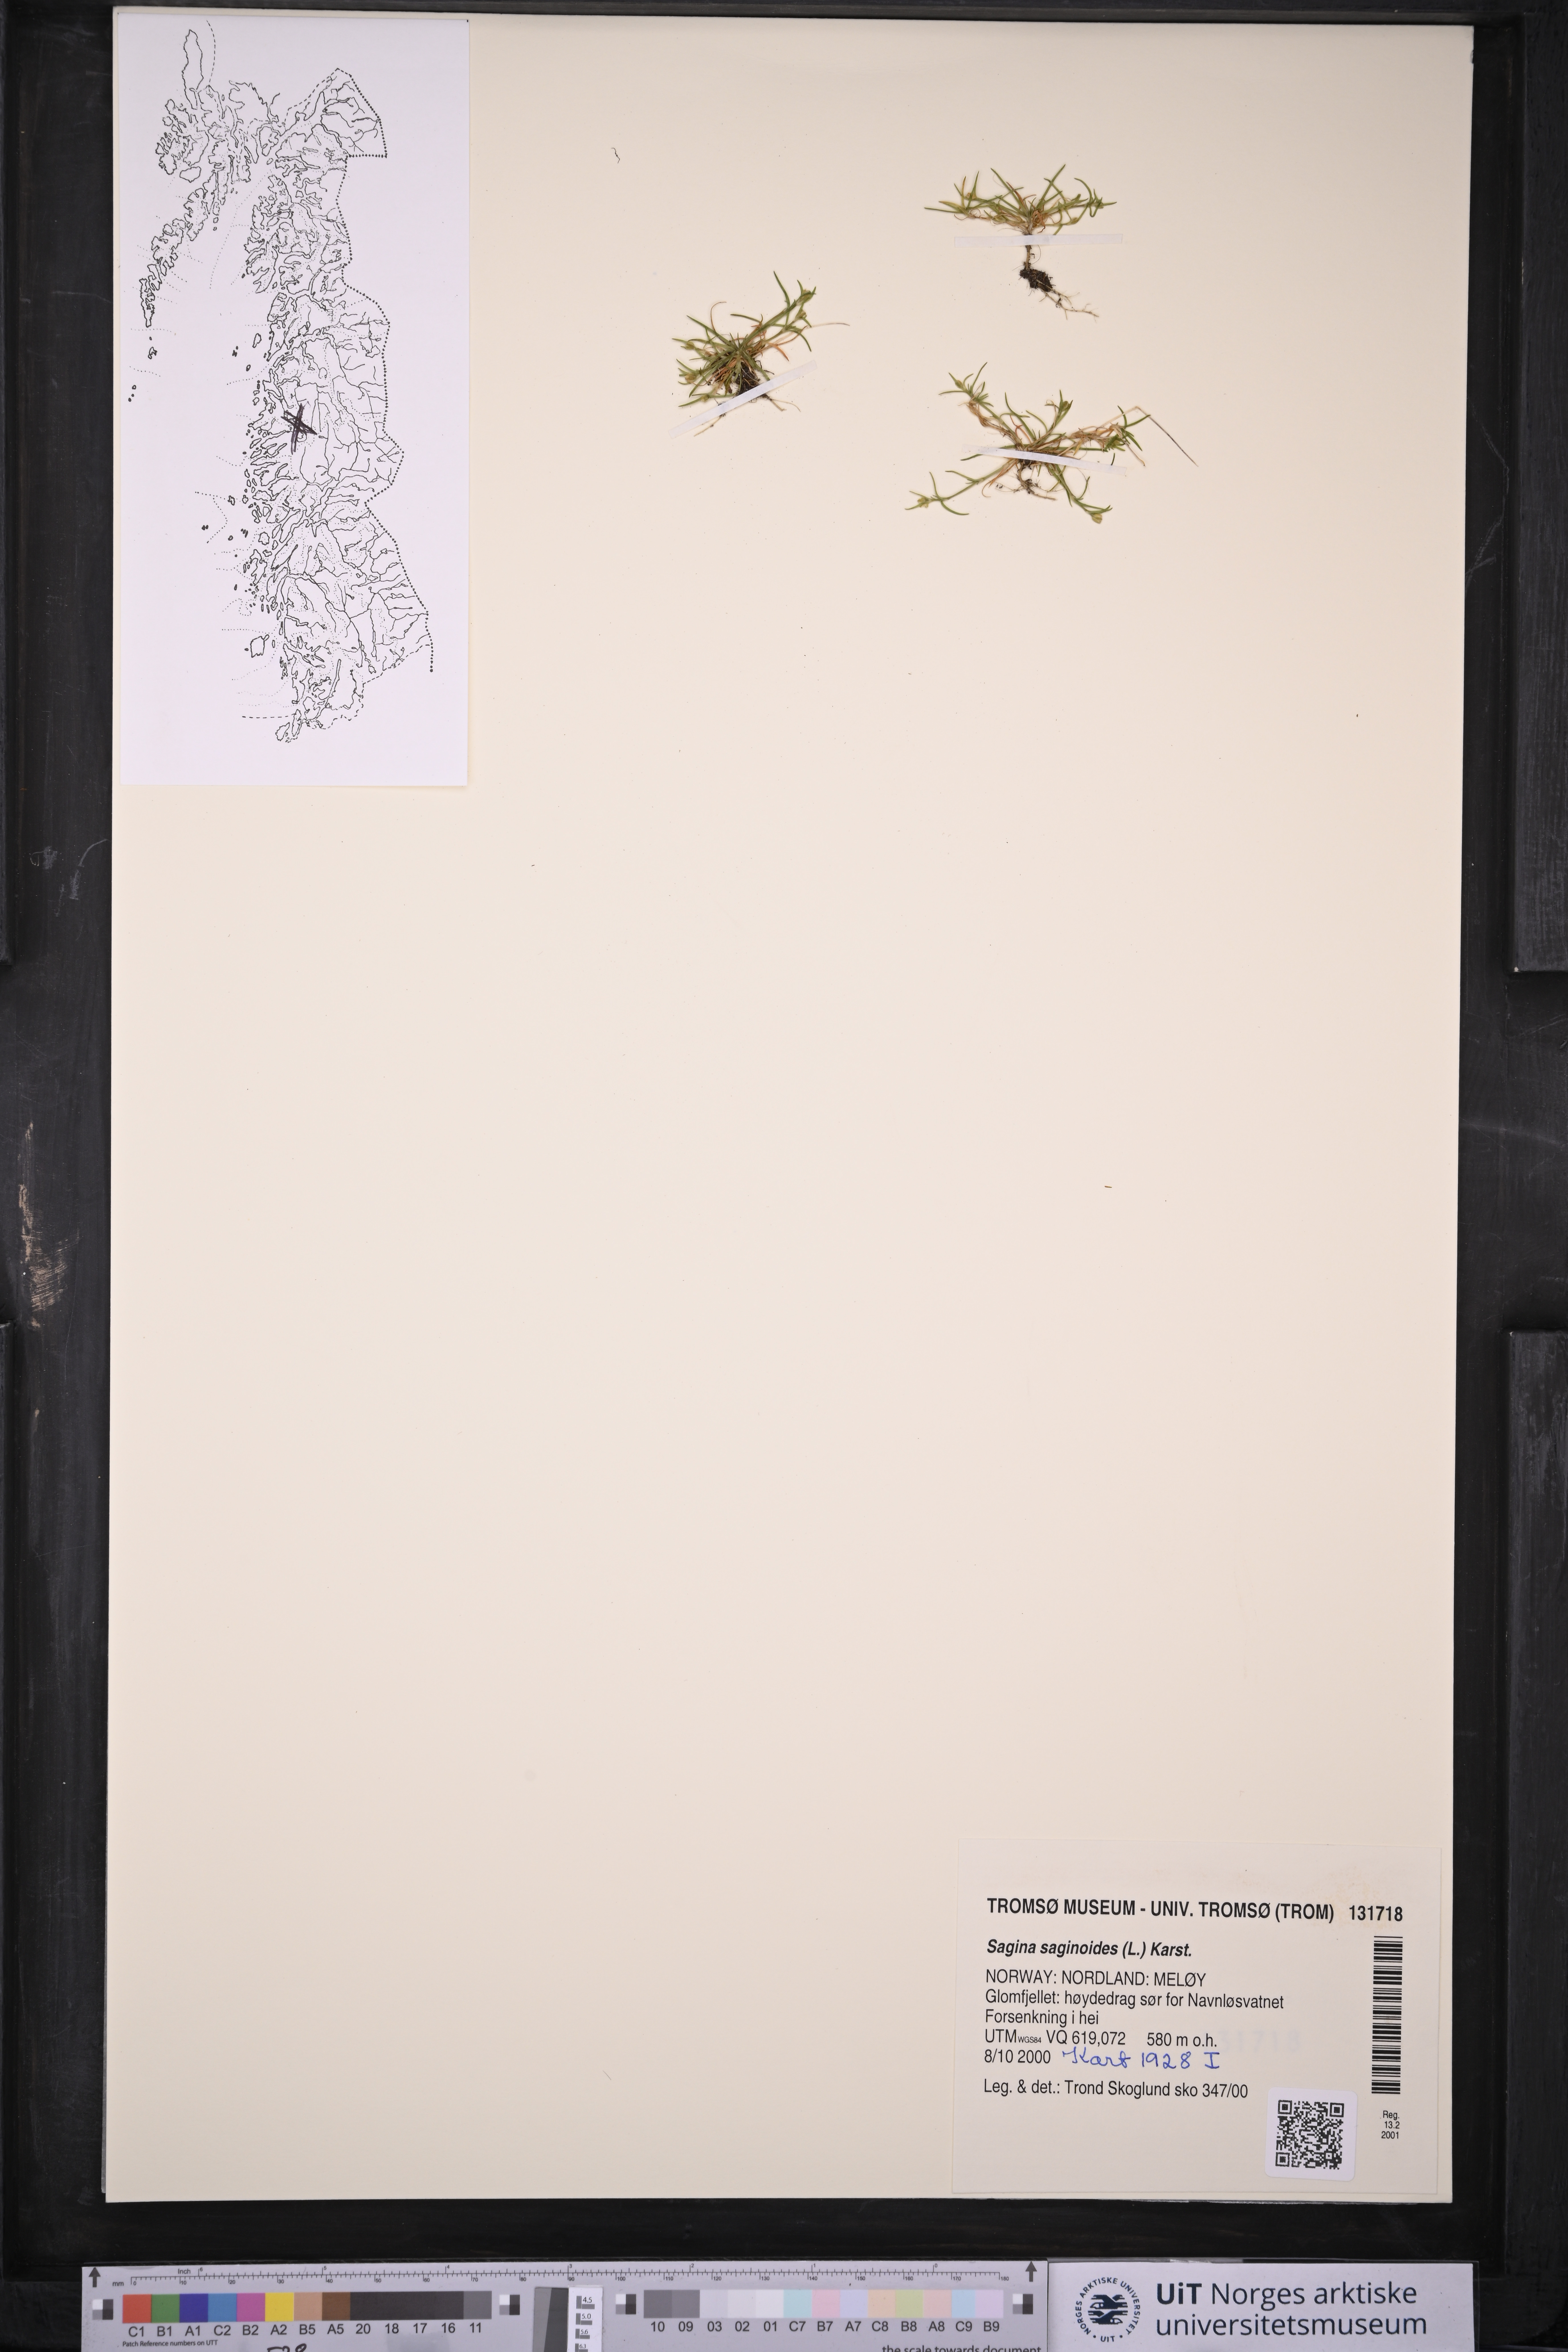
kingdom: Plantae
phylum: Tracheophyta
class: Magnoliopsida
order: Caryophyllales
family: Caryophyllaceae
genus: Sagina
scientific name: Sagina saginoides
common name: Alpine pearlwort
